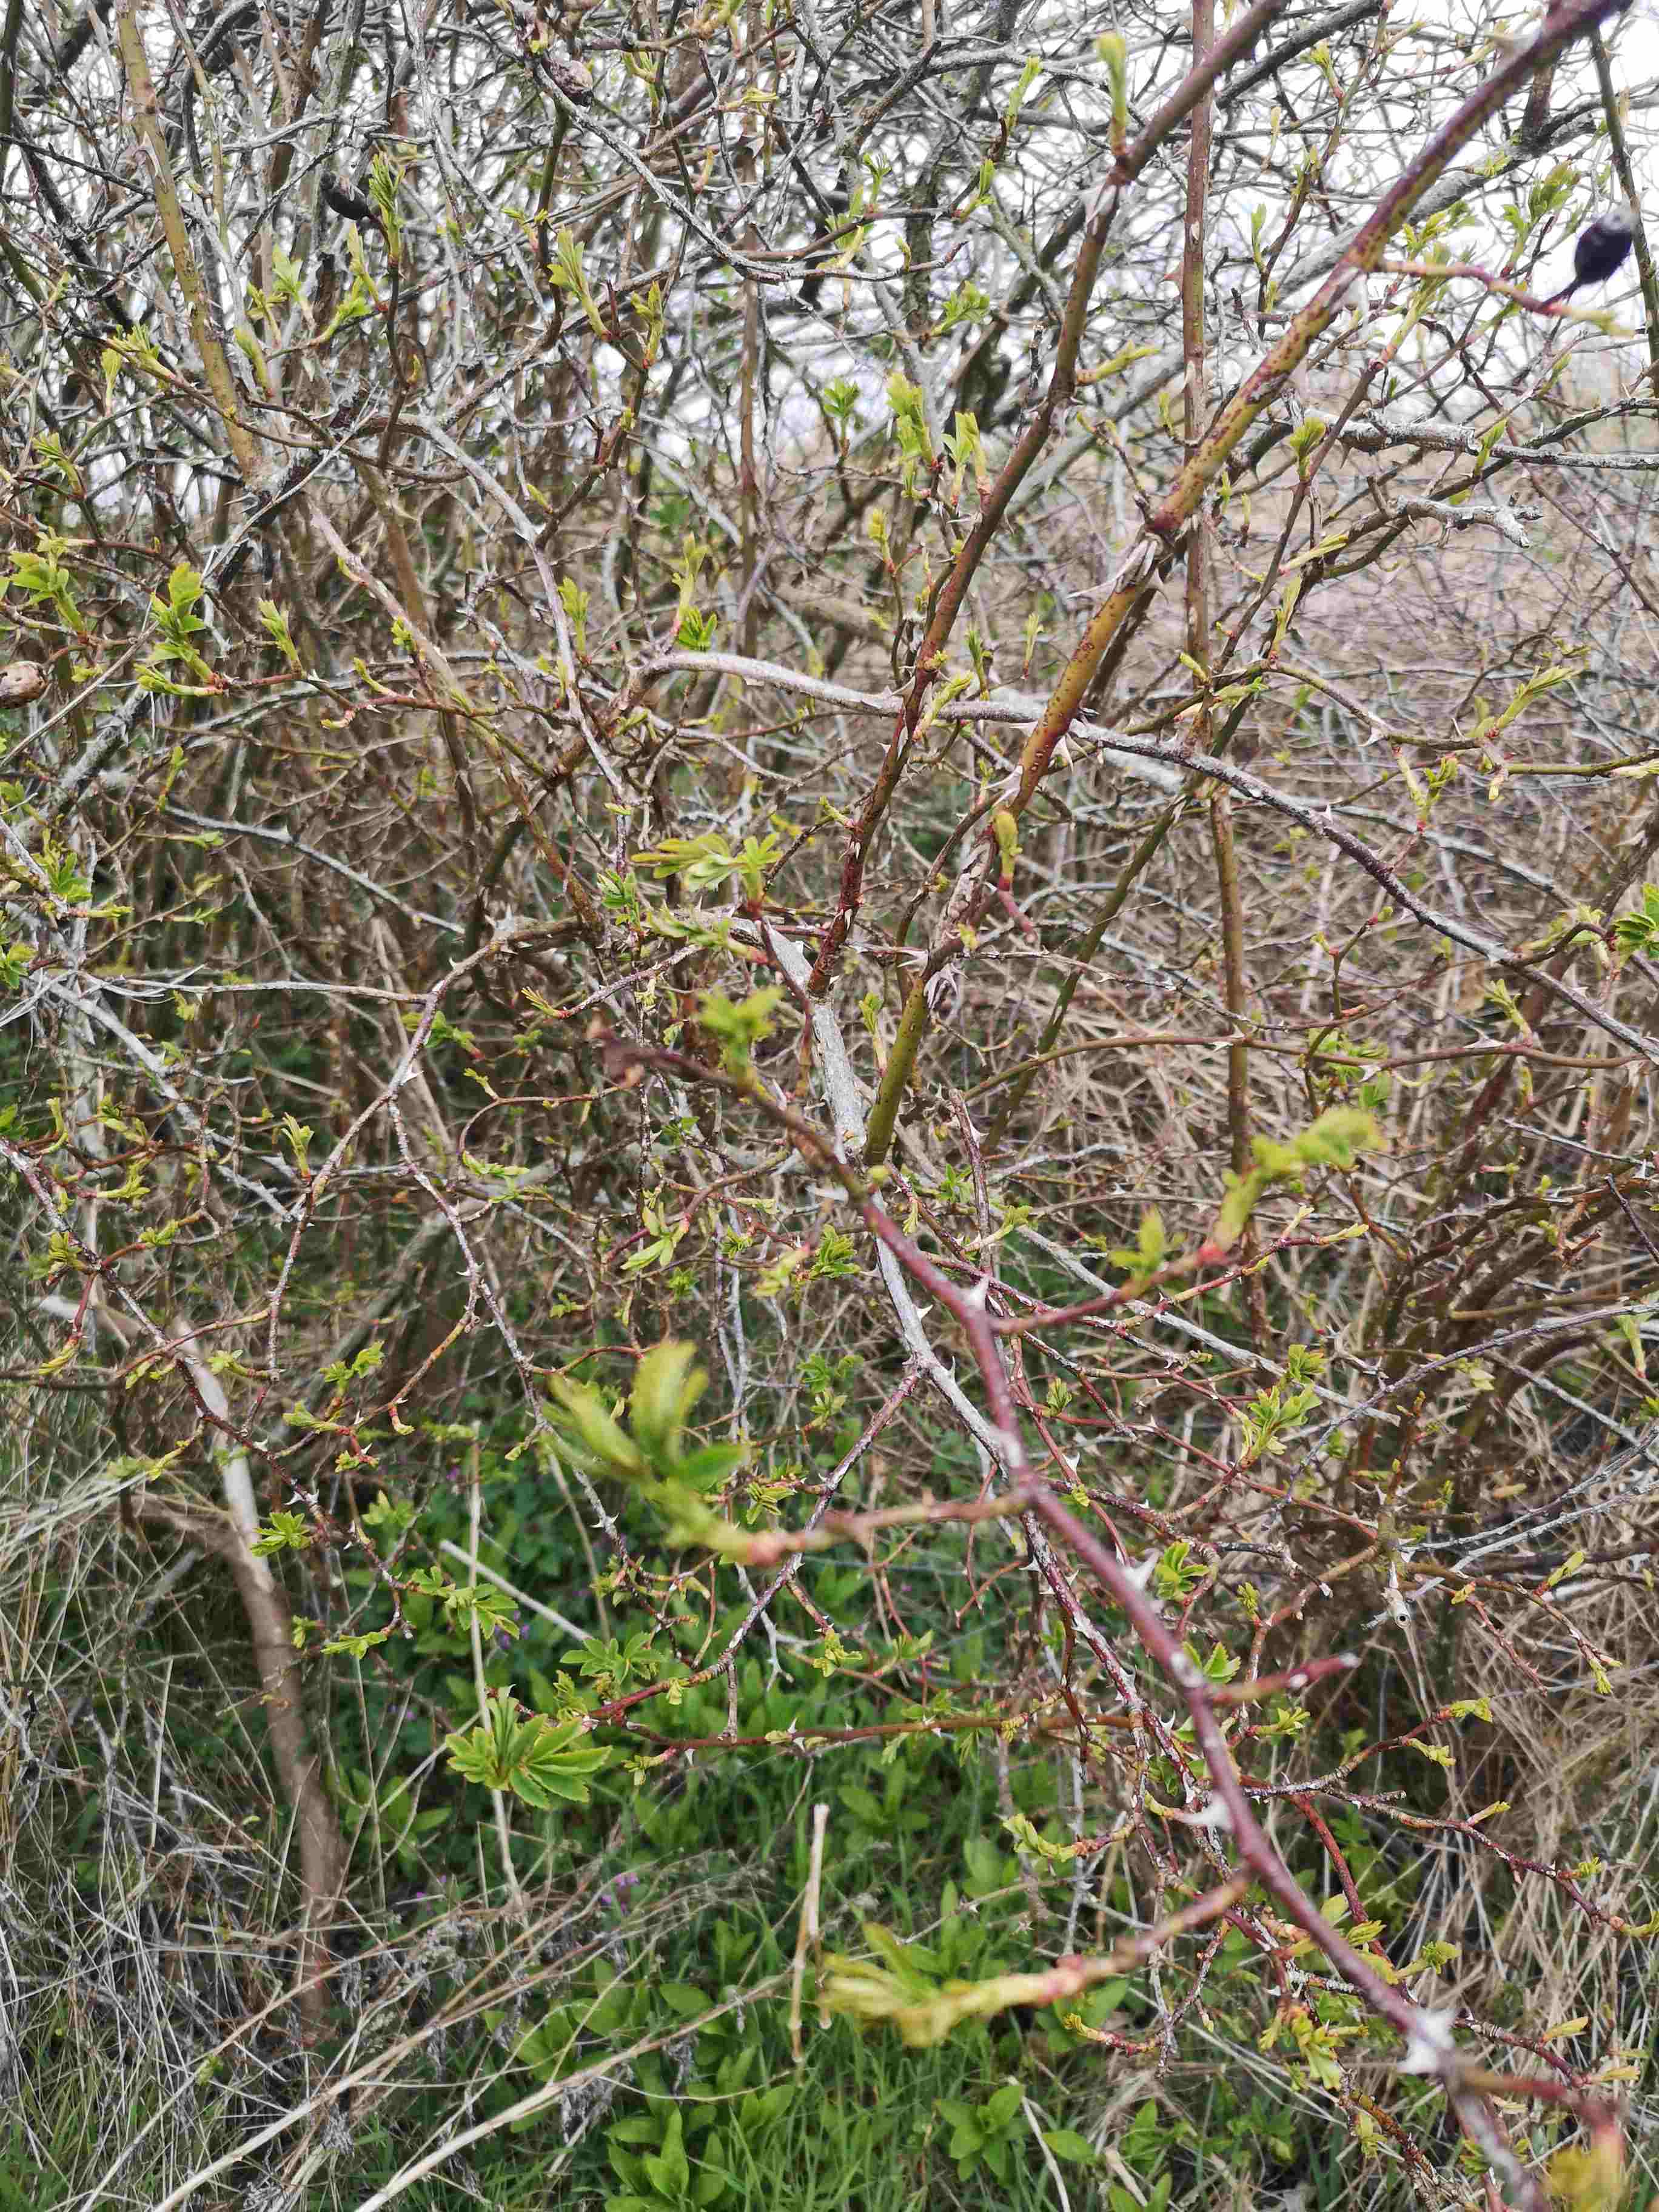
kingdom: Fungi
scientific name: Fungi
